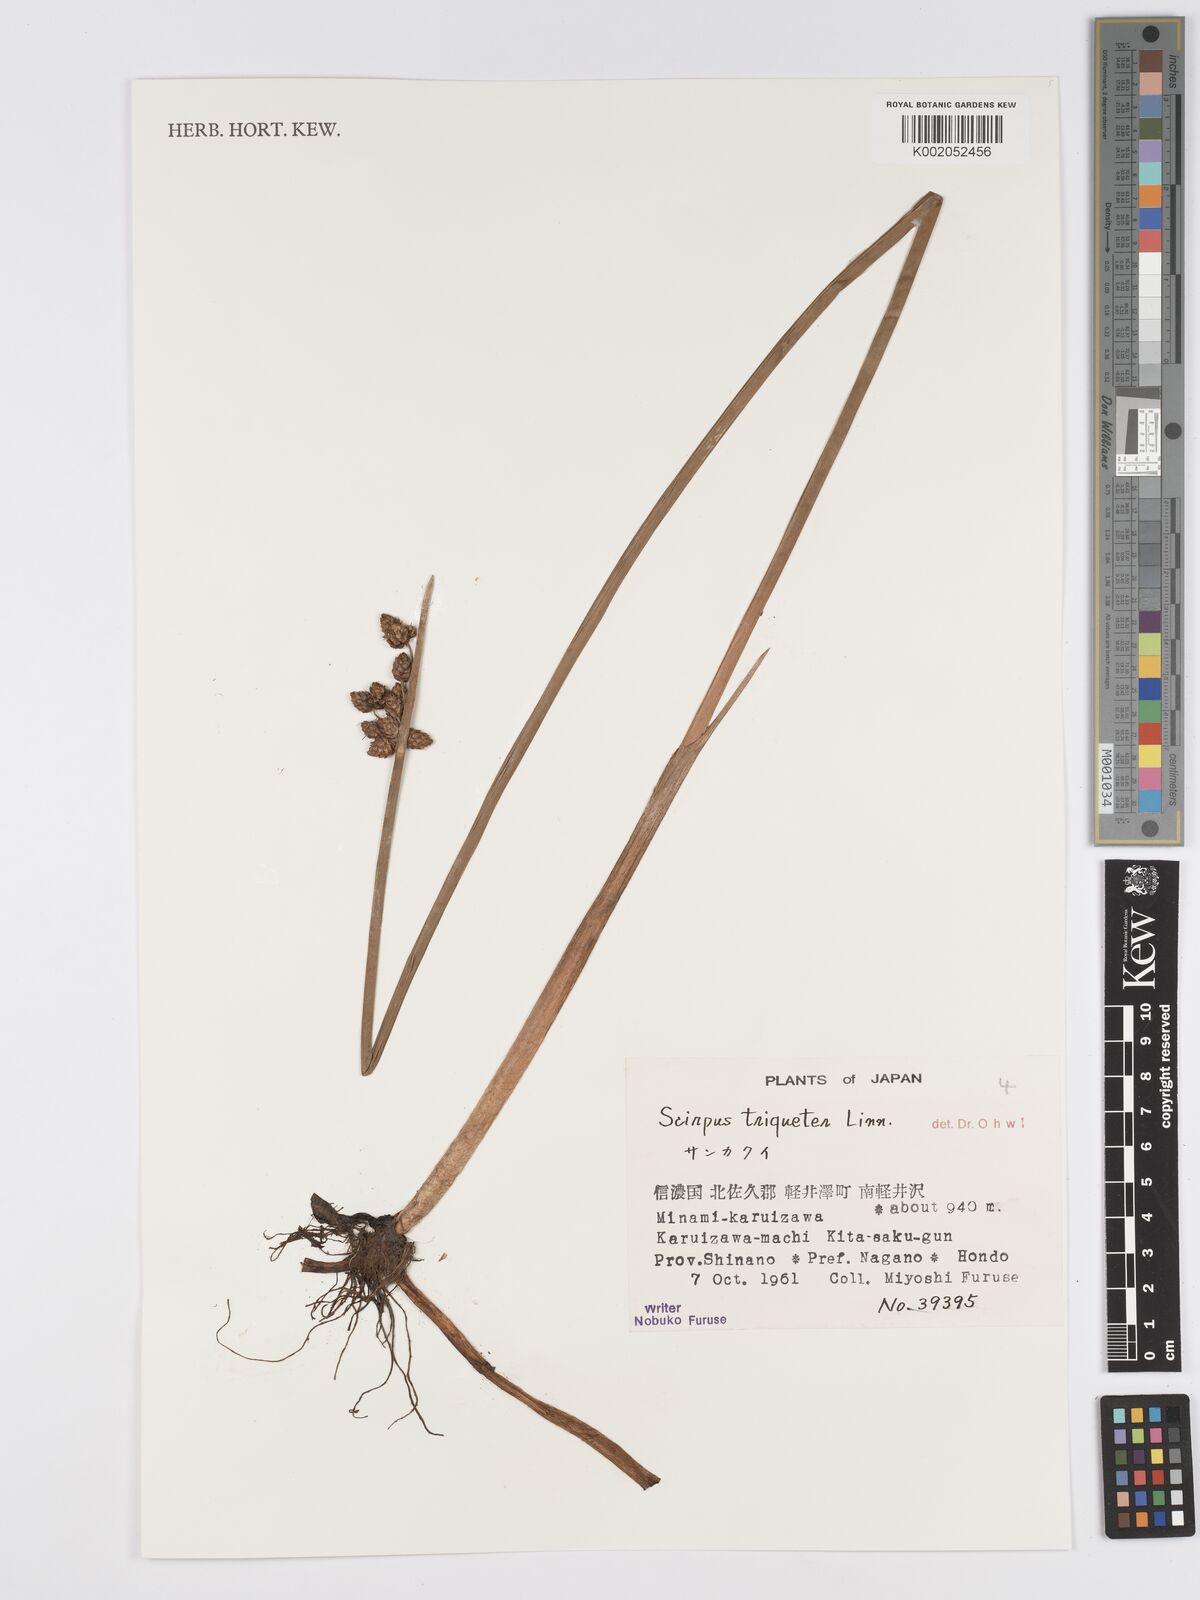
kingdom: Plantae
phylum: Tracheophyta
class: Liliopsida
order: Poales
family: Cyperaceae
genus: Schoenoplectus
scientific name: Schoenoplectus triqueter
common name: Triangular club-rush
